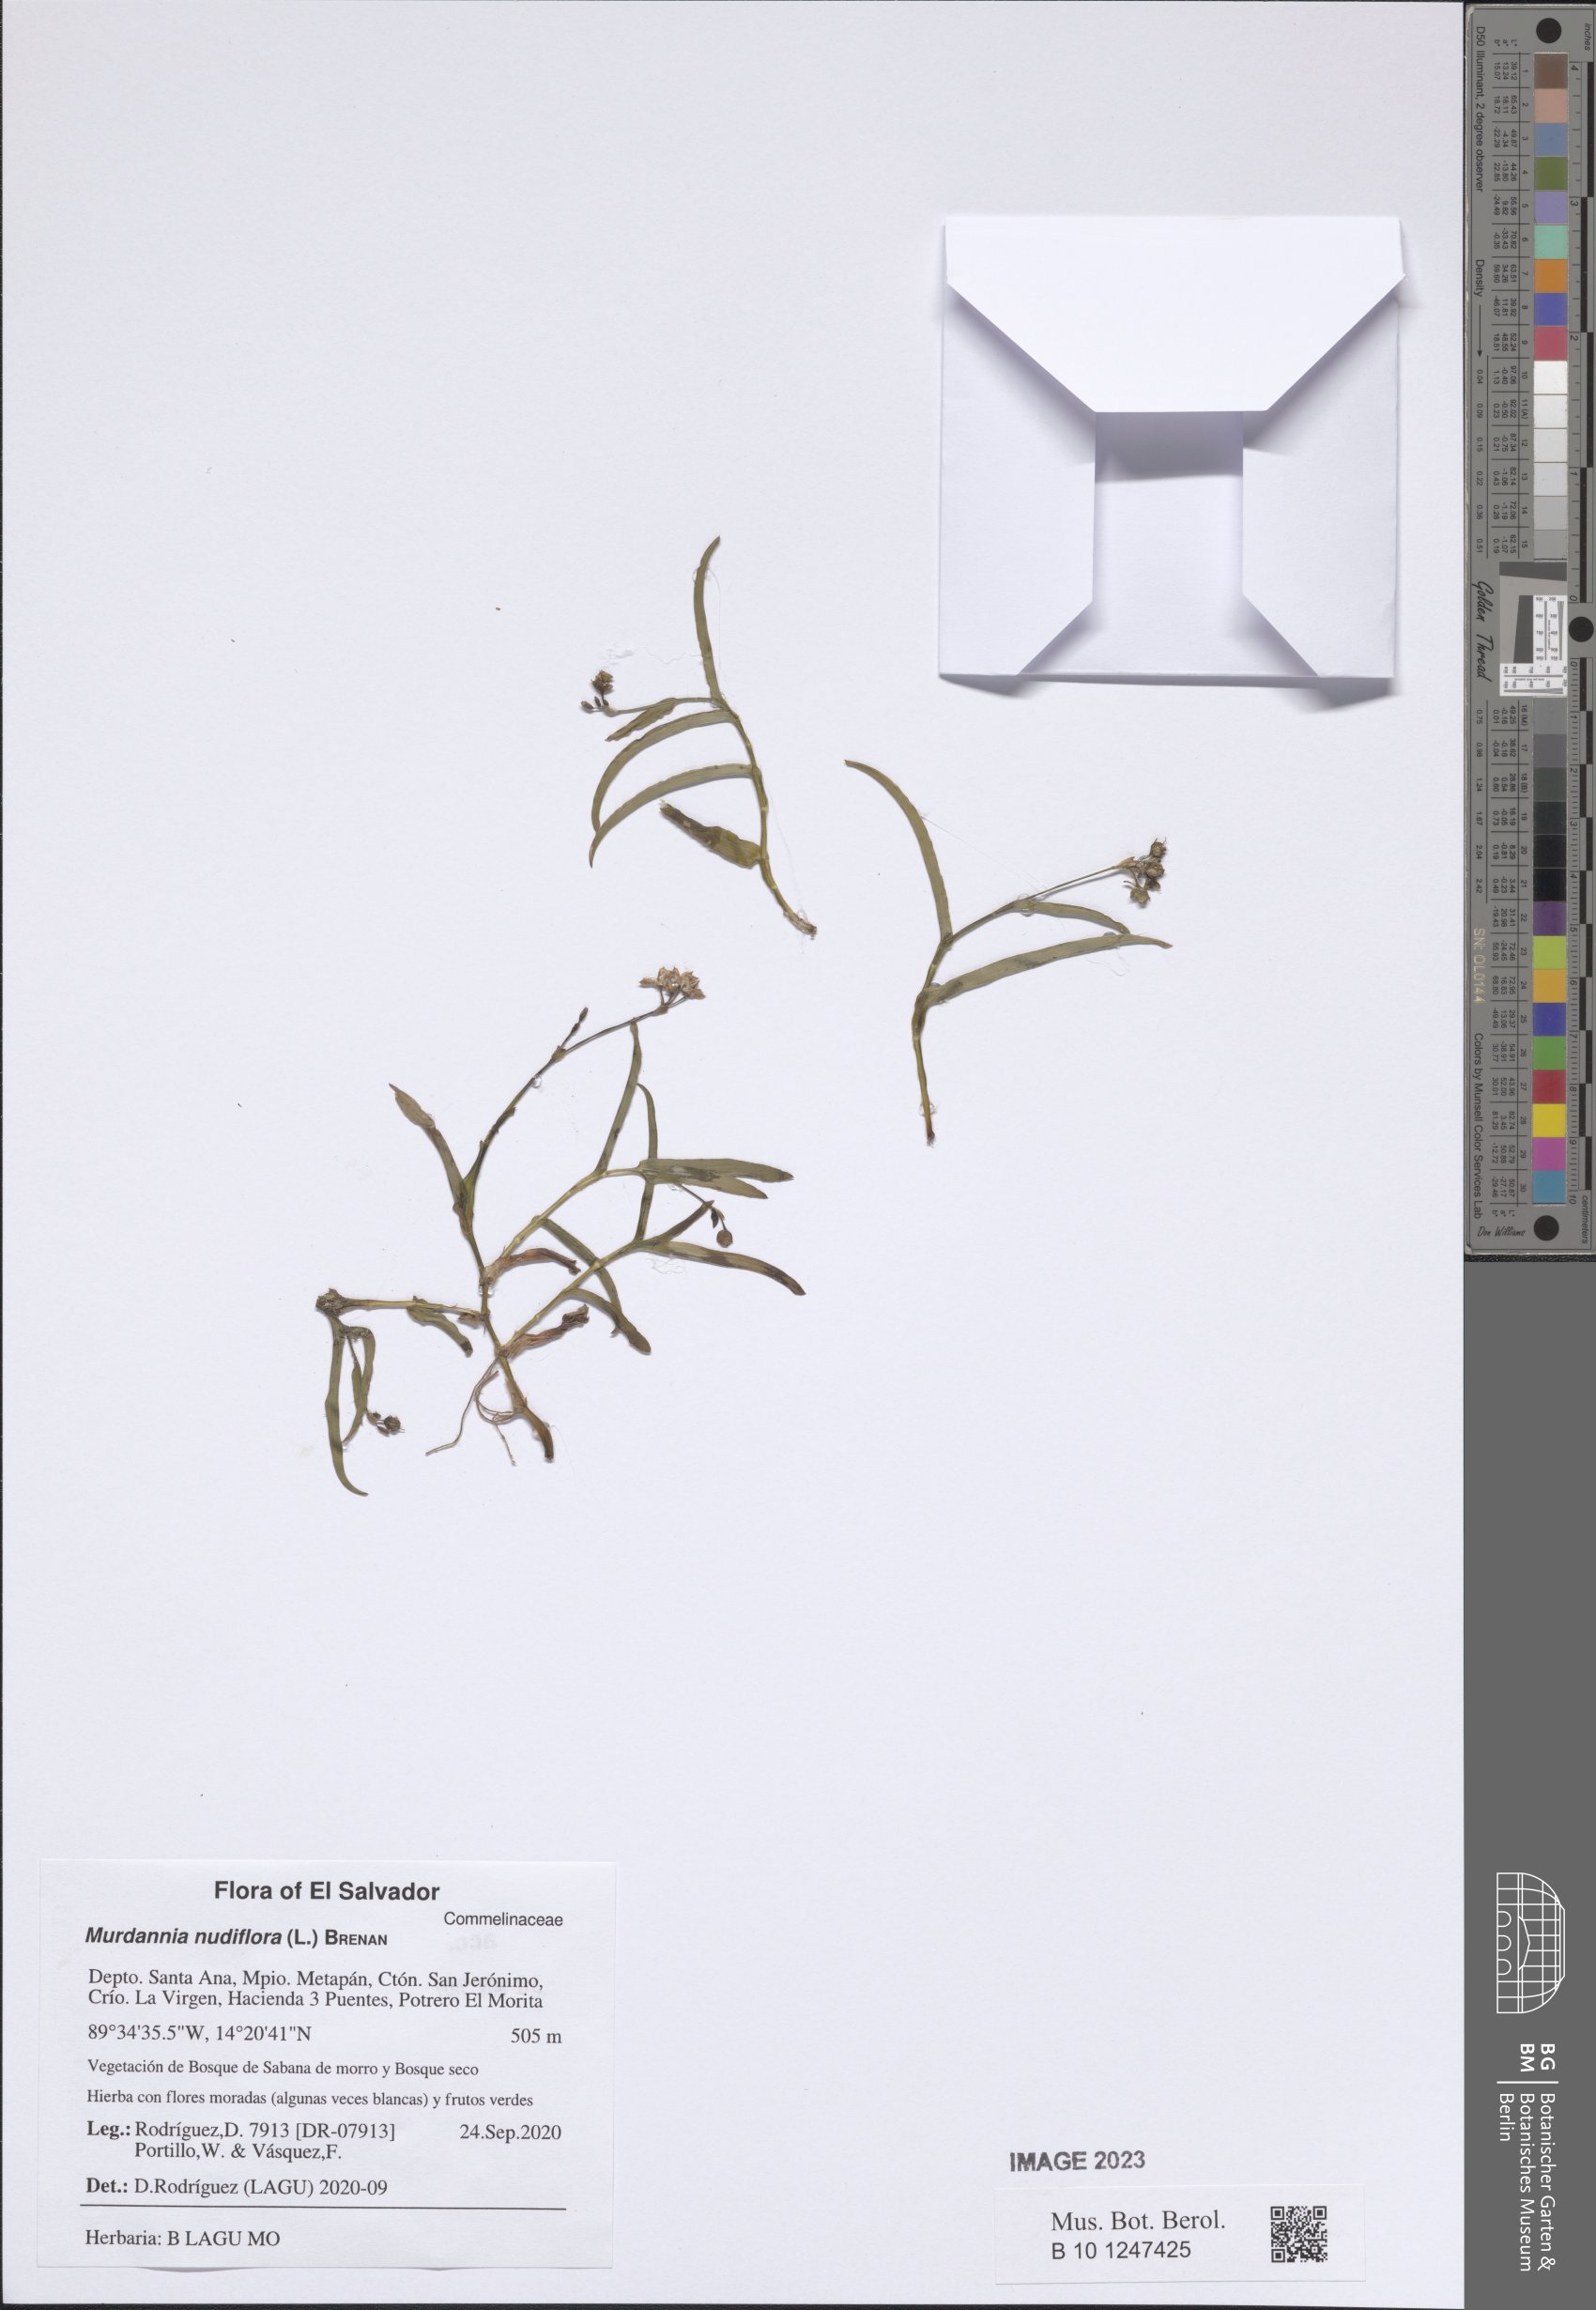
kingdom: Plantae
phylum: Tracheophyta
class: Liliopsida
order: Commelinales
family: Commelinaceae
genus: Murdannia
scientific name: Murdannia nudiflora
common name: Nakedstem dewflower
